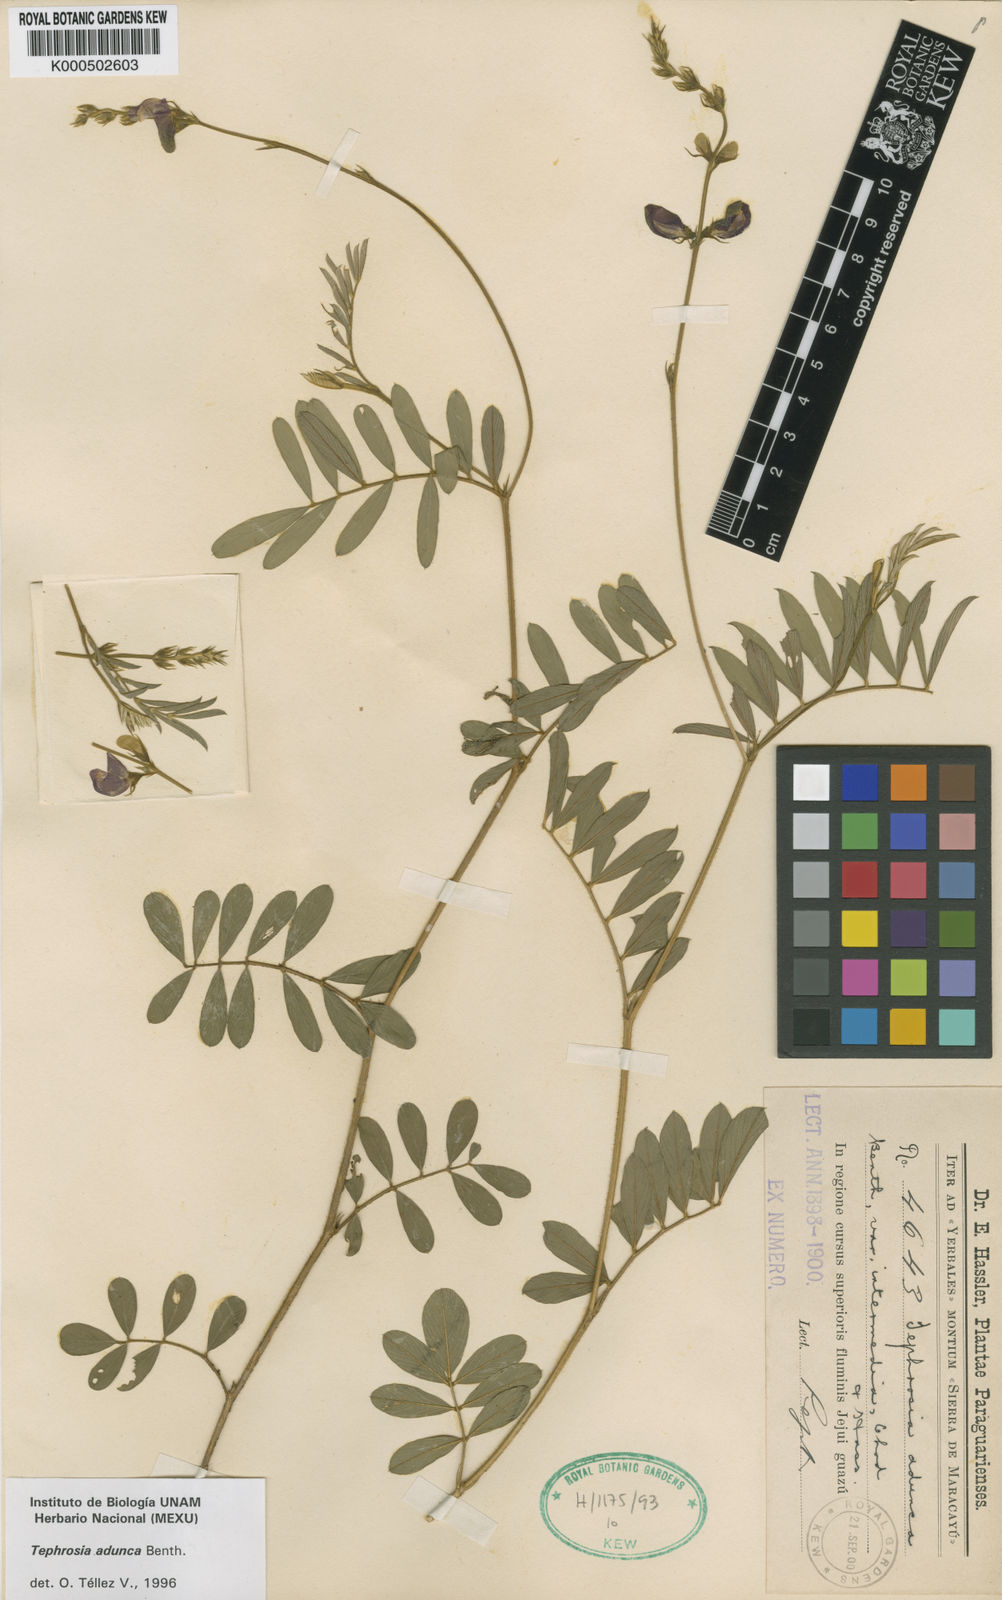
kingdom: Plantae
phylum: Tracheophyta
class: Magnoliopsida
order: Fabales
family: Fabaceae
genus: Tephrosia
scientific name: Tephrosia adunca
